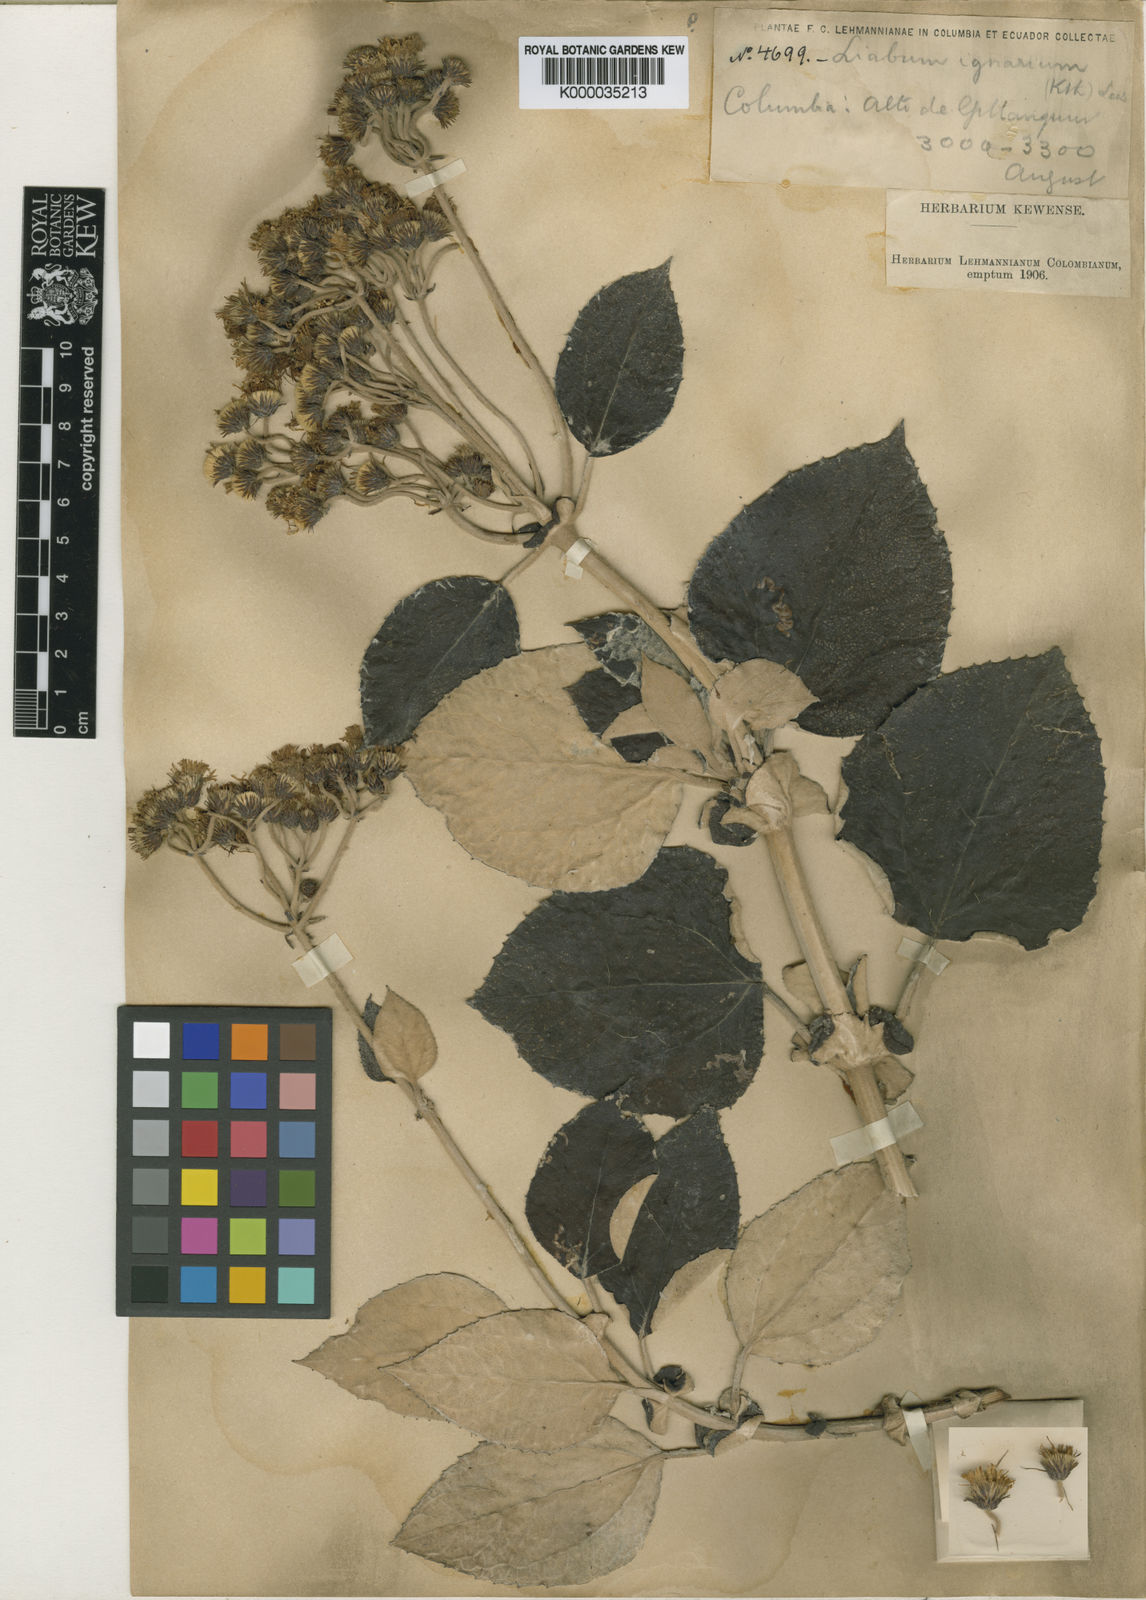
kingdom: Plantae
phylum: Tracheophyta
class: Magnoliopsida
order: Asterales
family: Asteraceae
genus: Liabum
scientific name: Liabum igniarium
